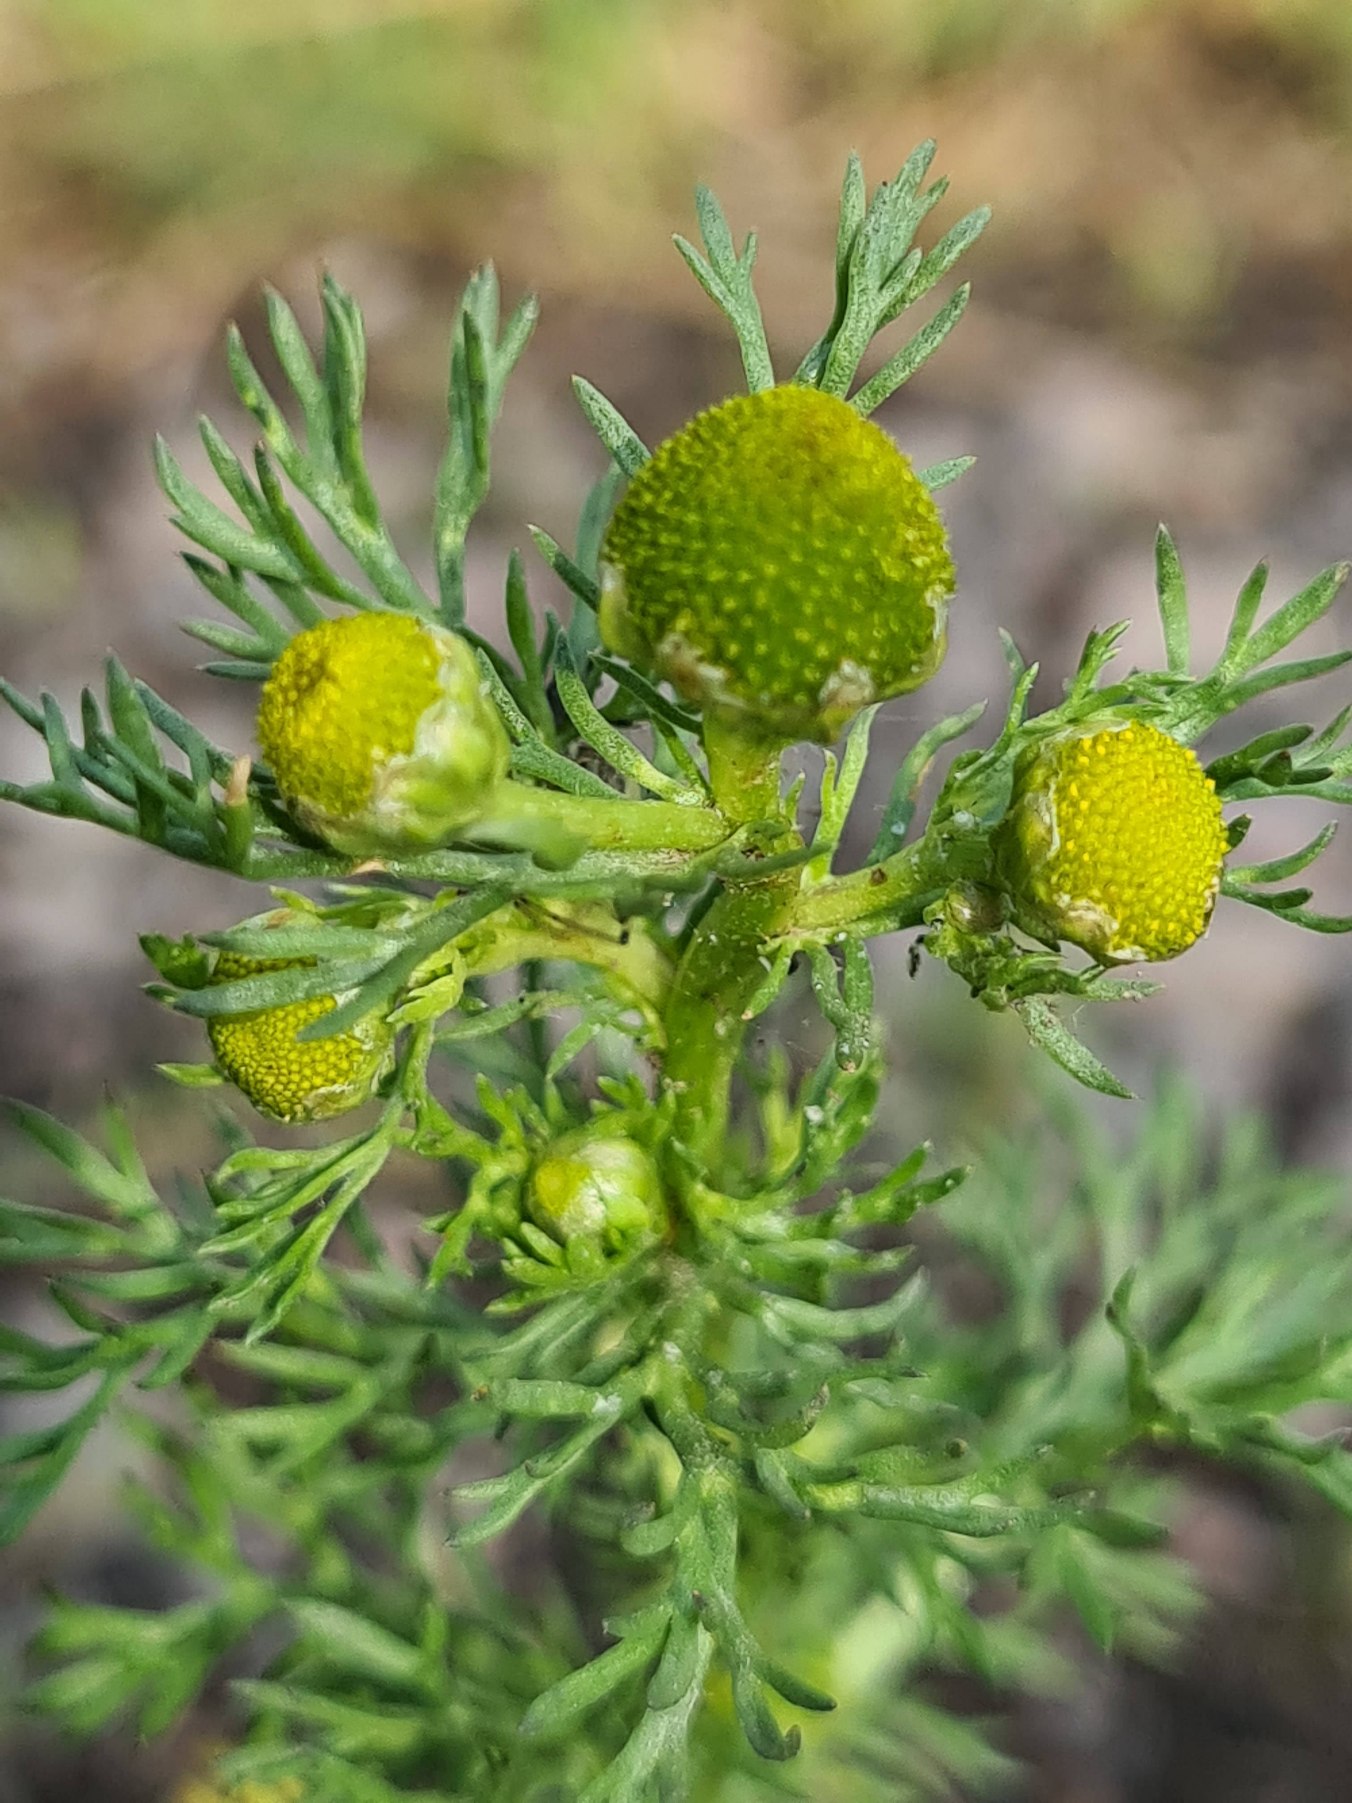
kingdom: Plantae
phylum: Tracheophyta
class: Magnoliopsida
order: Asterales
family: Asteraceae
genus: Matricaria
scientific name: Matricaria discoidea
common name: Skive-kamille
